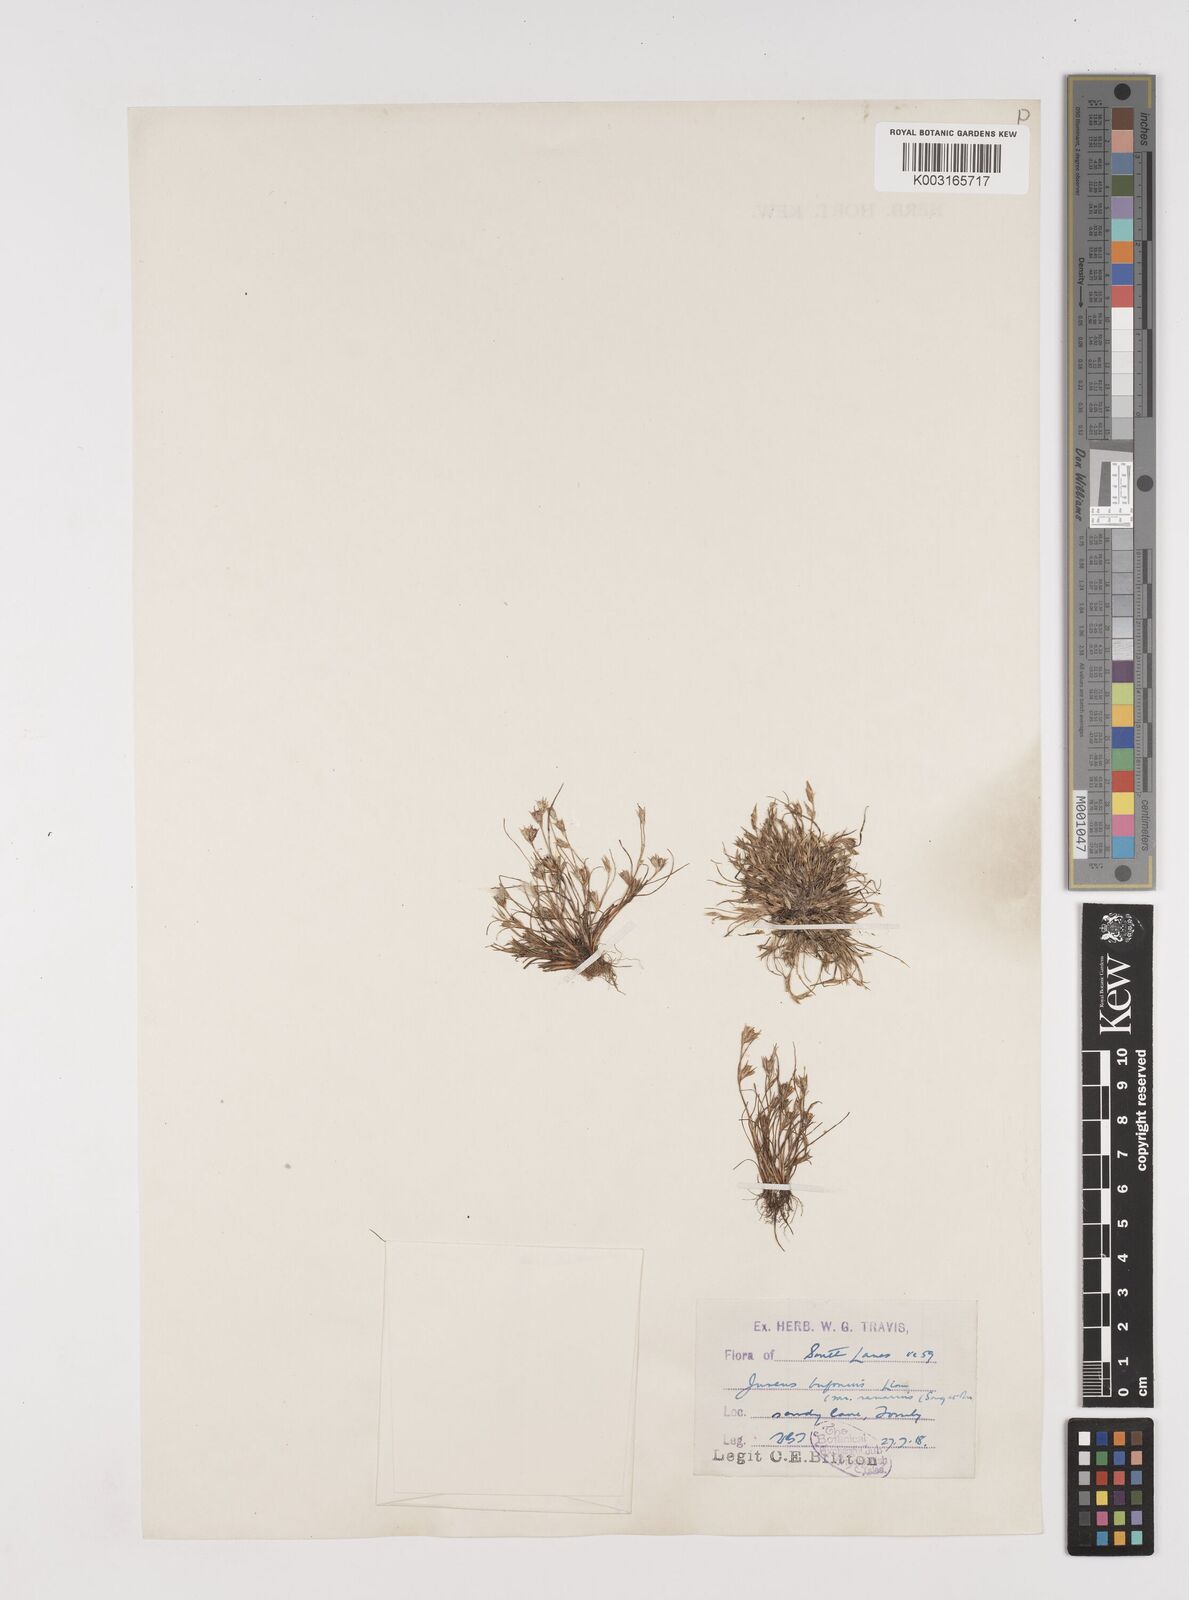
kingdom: Plantae
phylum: Tracheophyta
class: Liliopsida
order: Poales
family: Juncaceae
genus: Juncus
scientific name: Juncus bufonius
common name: Toad rush
